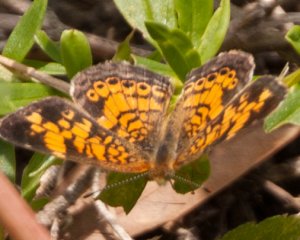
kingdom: Animalia
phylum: Arthropoda
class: Insecta
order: Lepidoptera
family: Nymphalidae
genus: Phyciodes
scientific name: Phyciodes tharos
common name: Pearl Crescent
